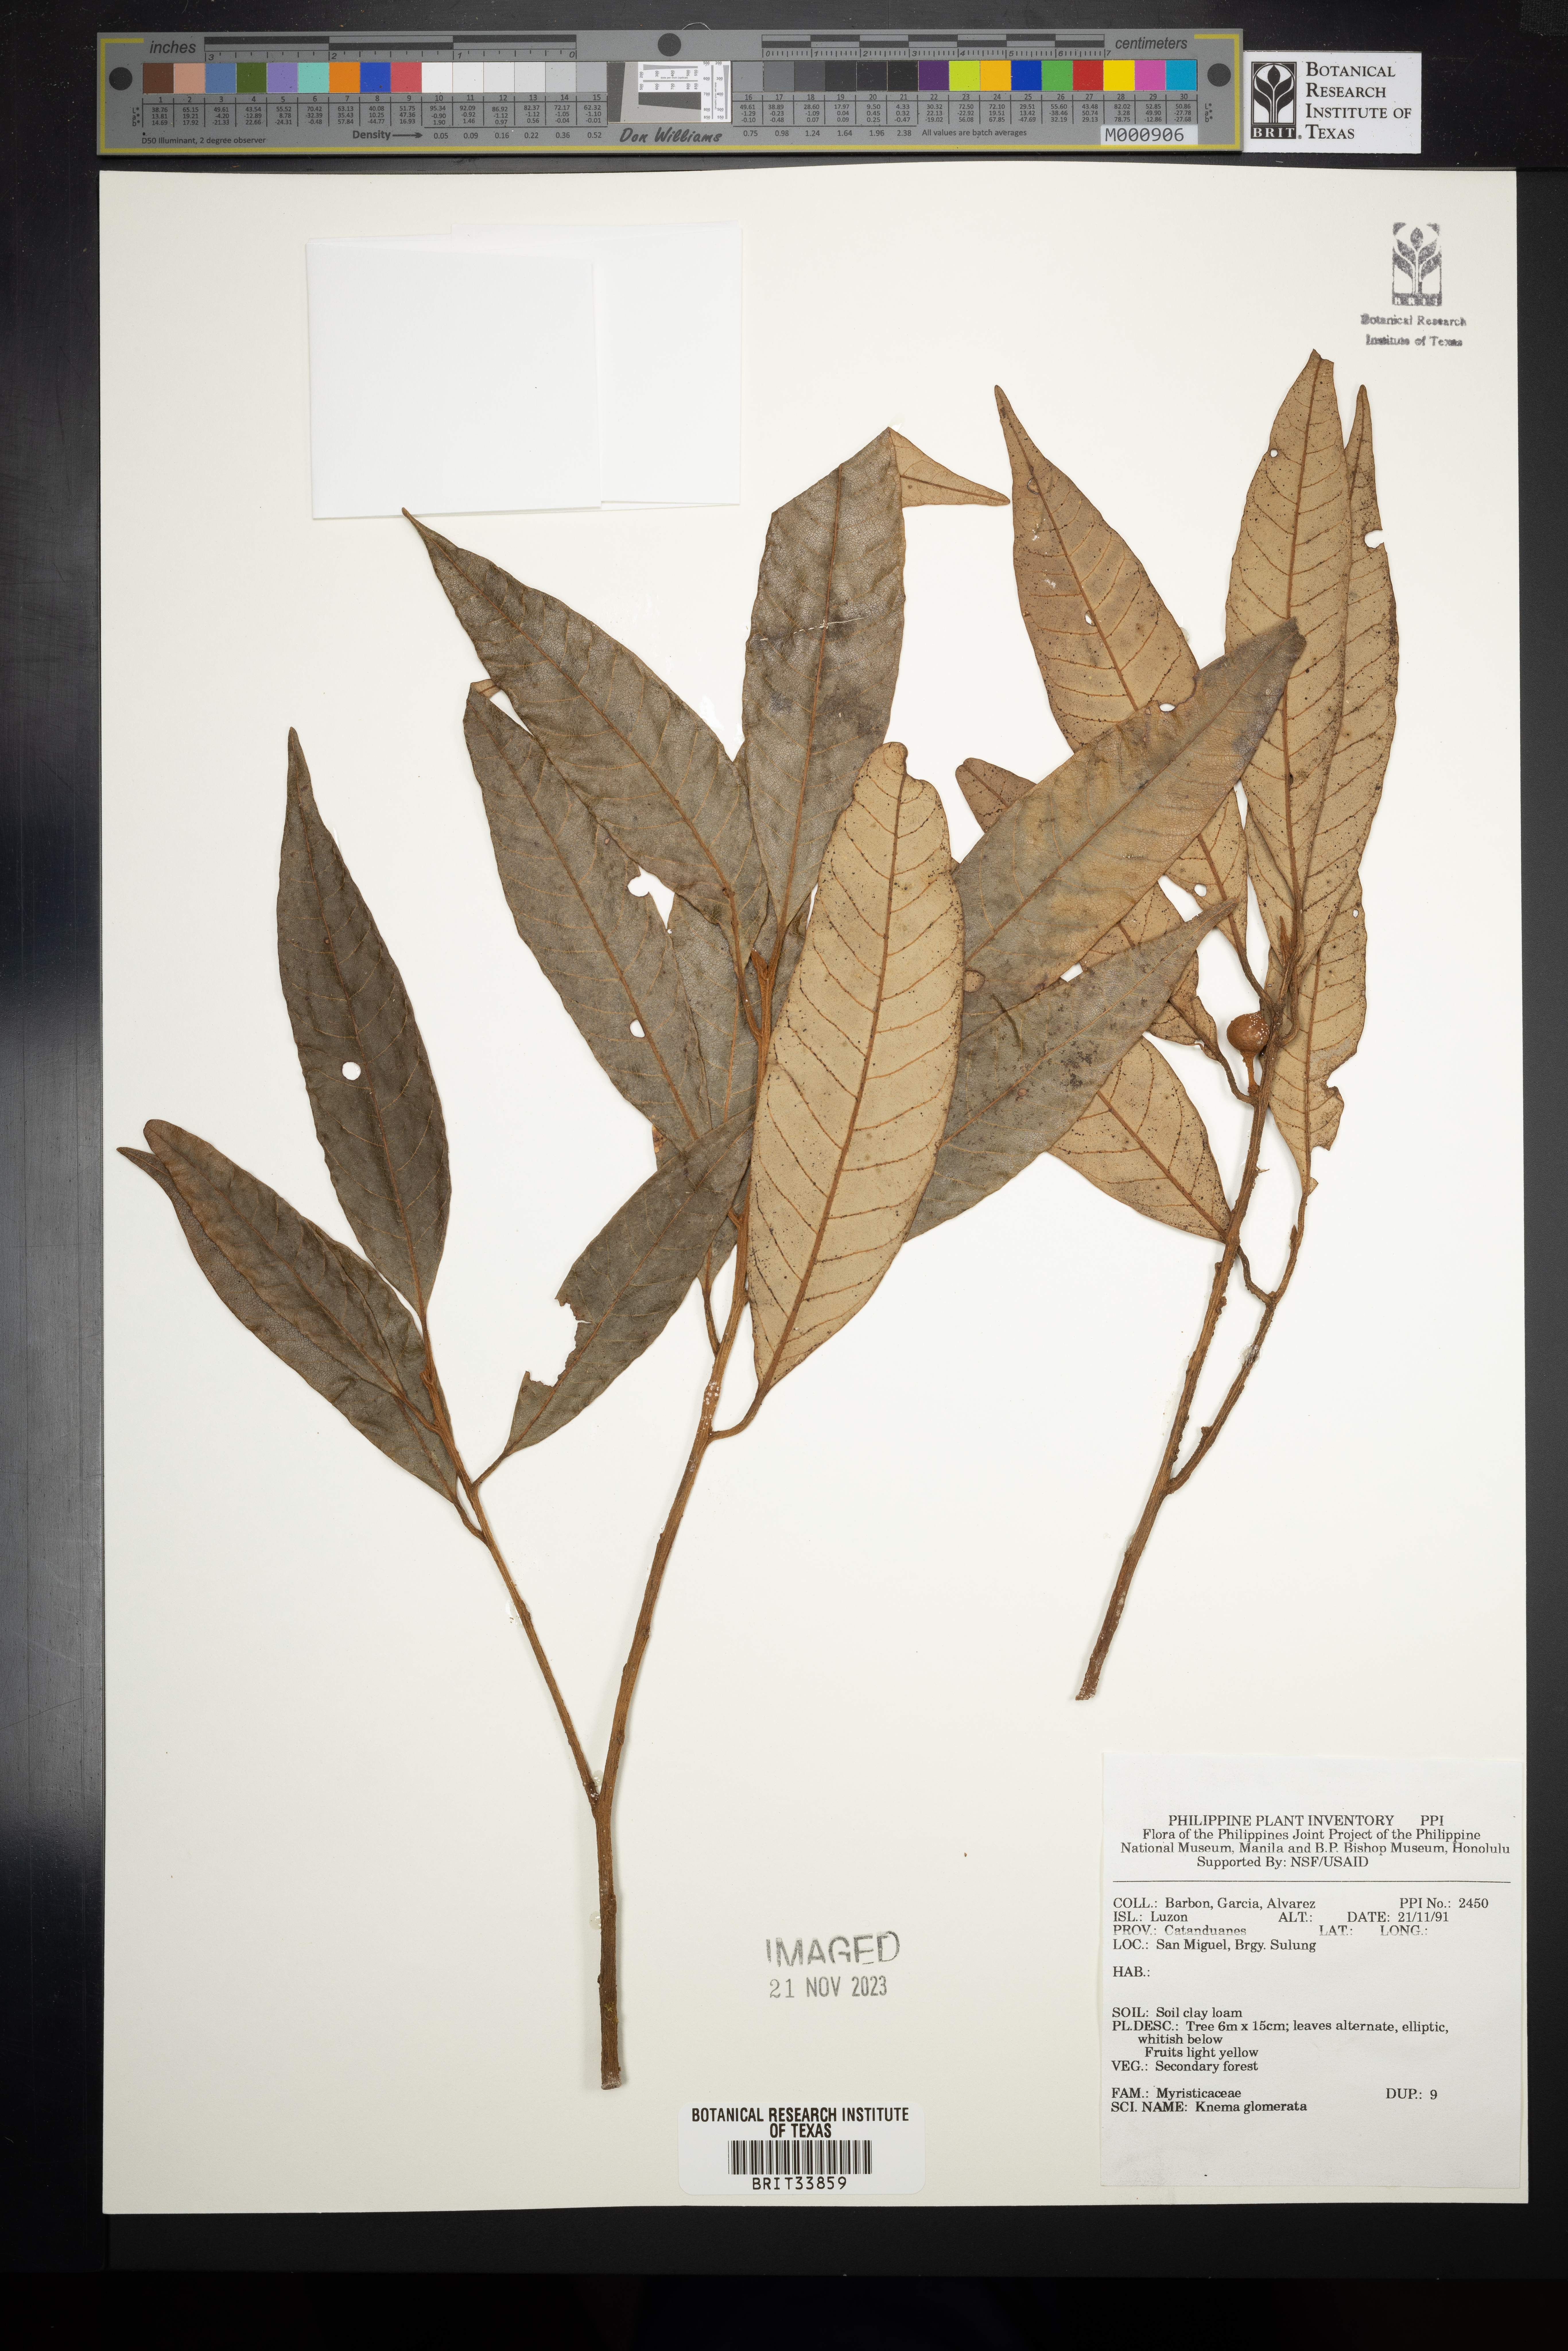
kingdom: Plantae
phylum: Tracheophyta
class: Magnoliopsida
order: Magnoliales
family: Myristicaceae
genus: Knema
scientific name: Knema glomerata
